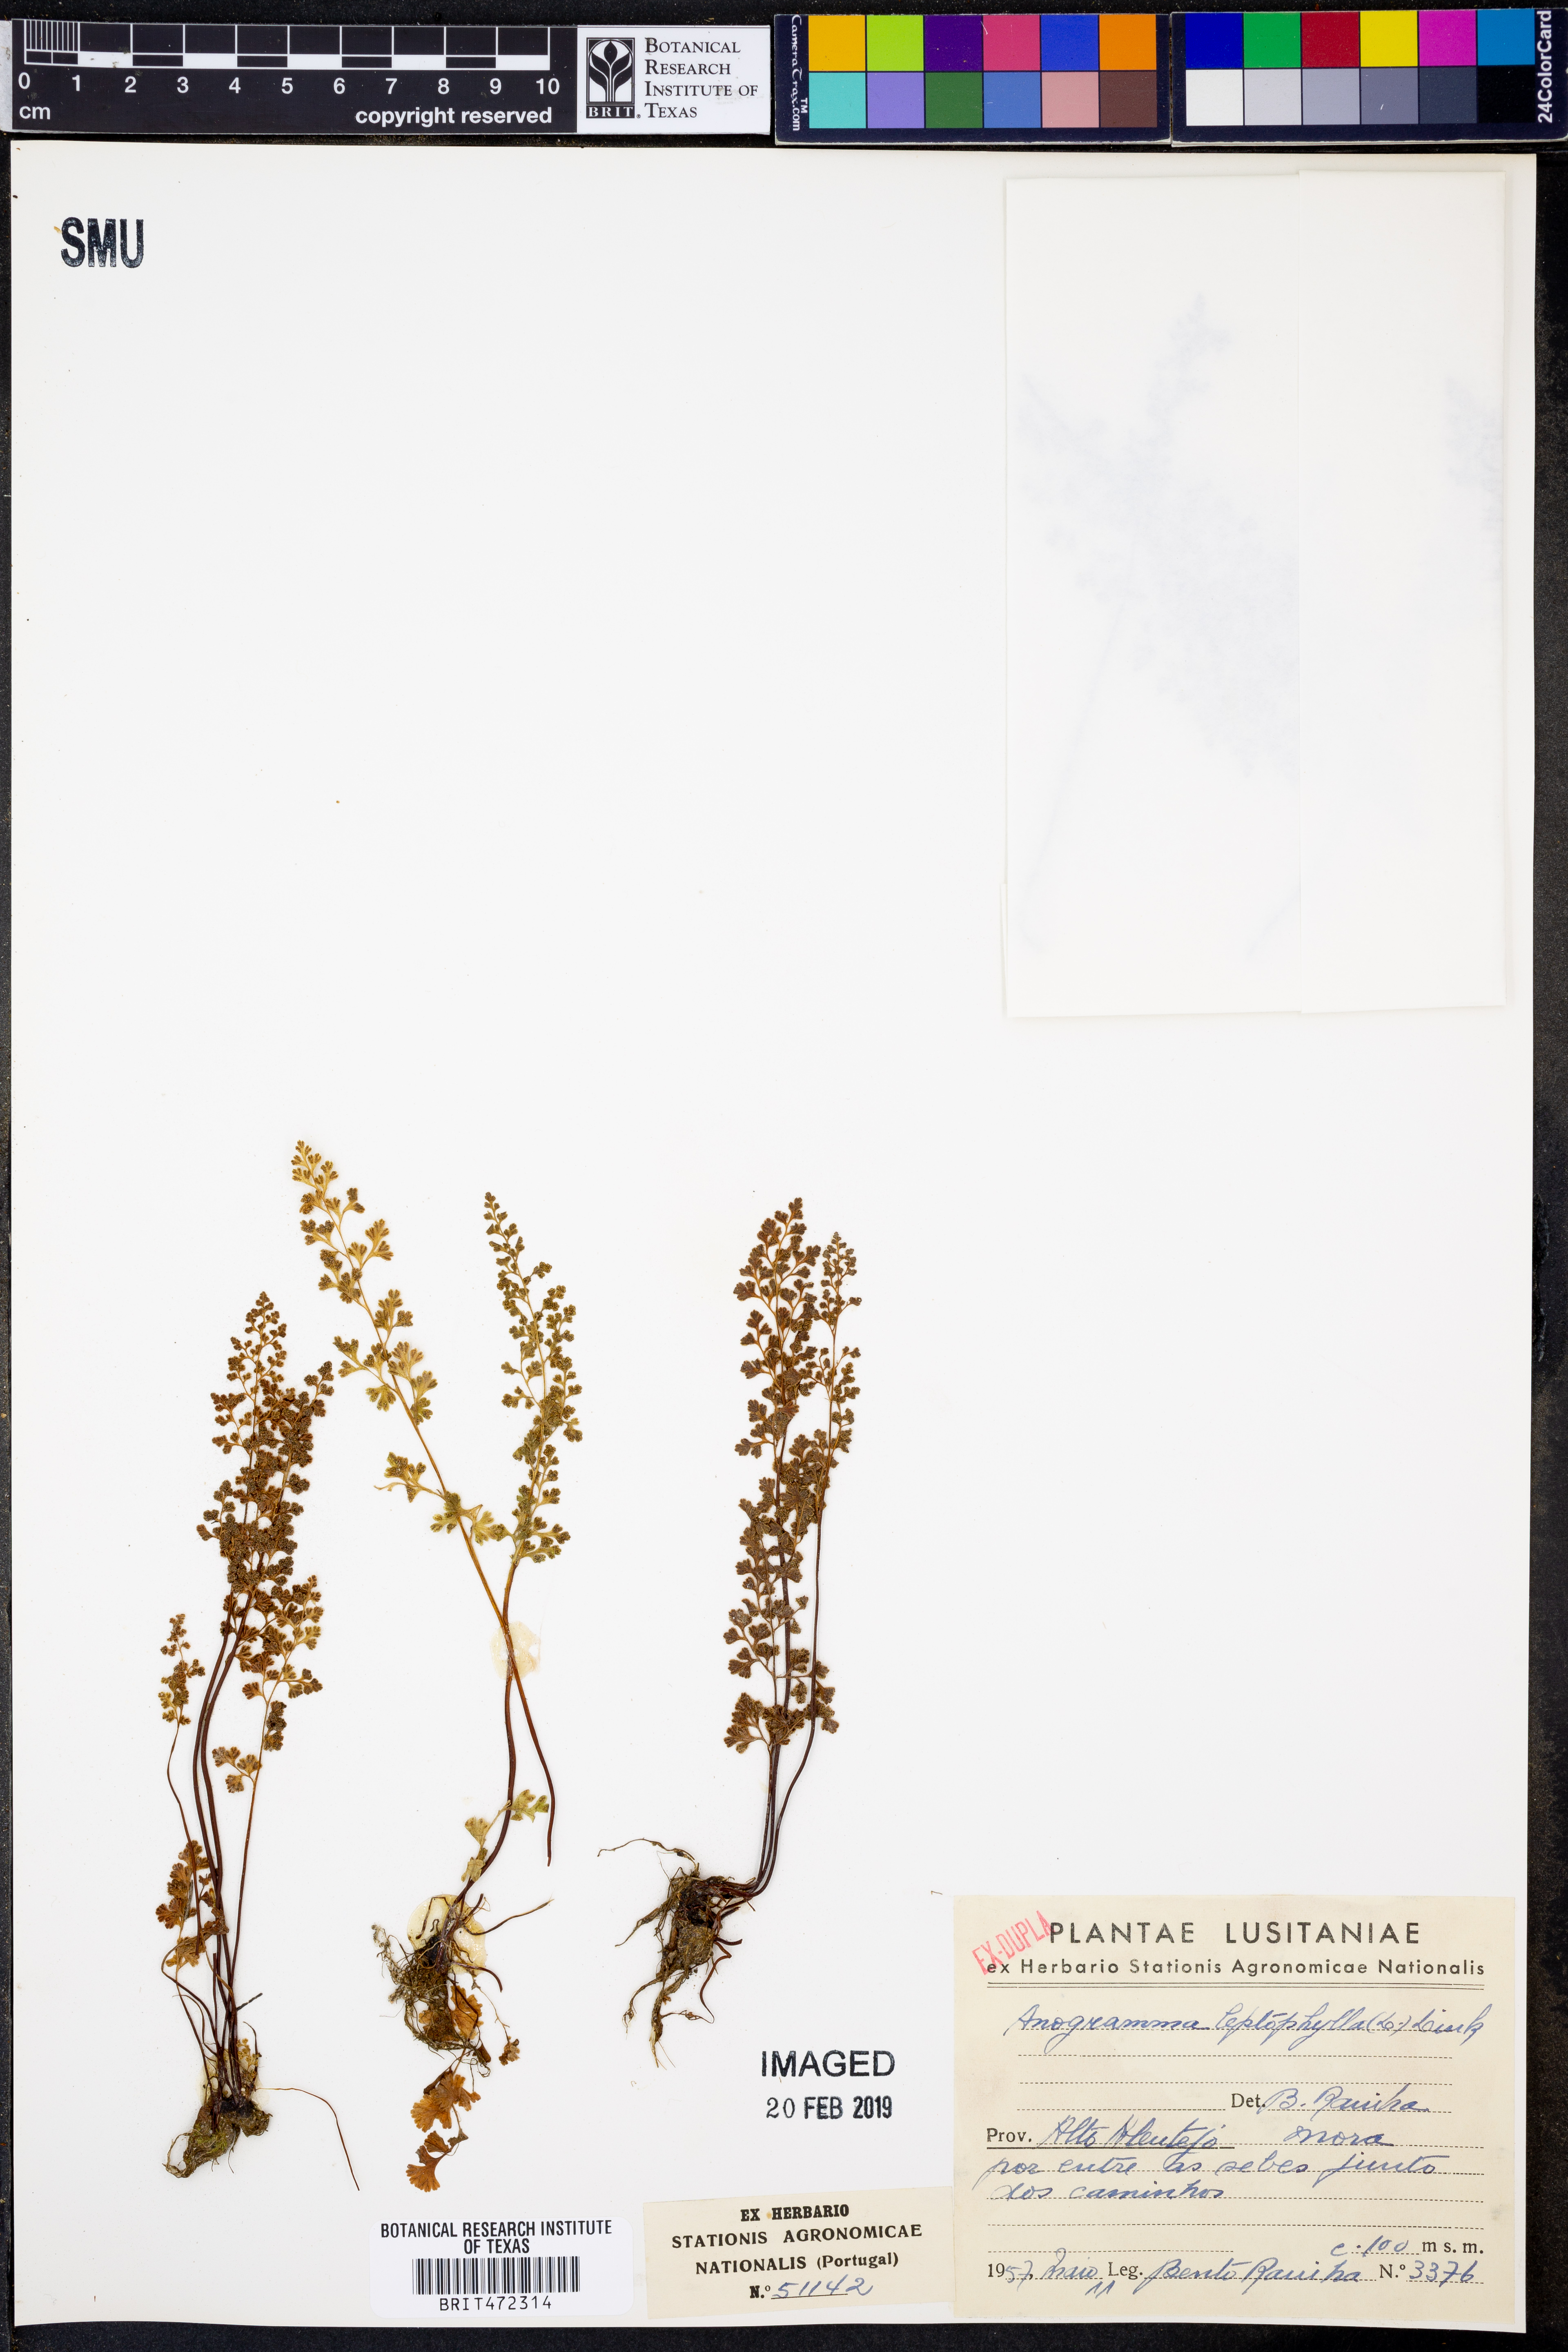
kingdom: Plantae
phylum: Tracheophyta
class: Polypodiopsida
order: Polypodiales
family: Pteridaceae
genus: Anogramma
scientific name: Anogramma leptophylla
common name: Jersey fern
